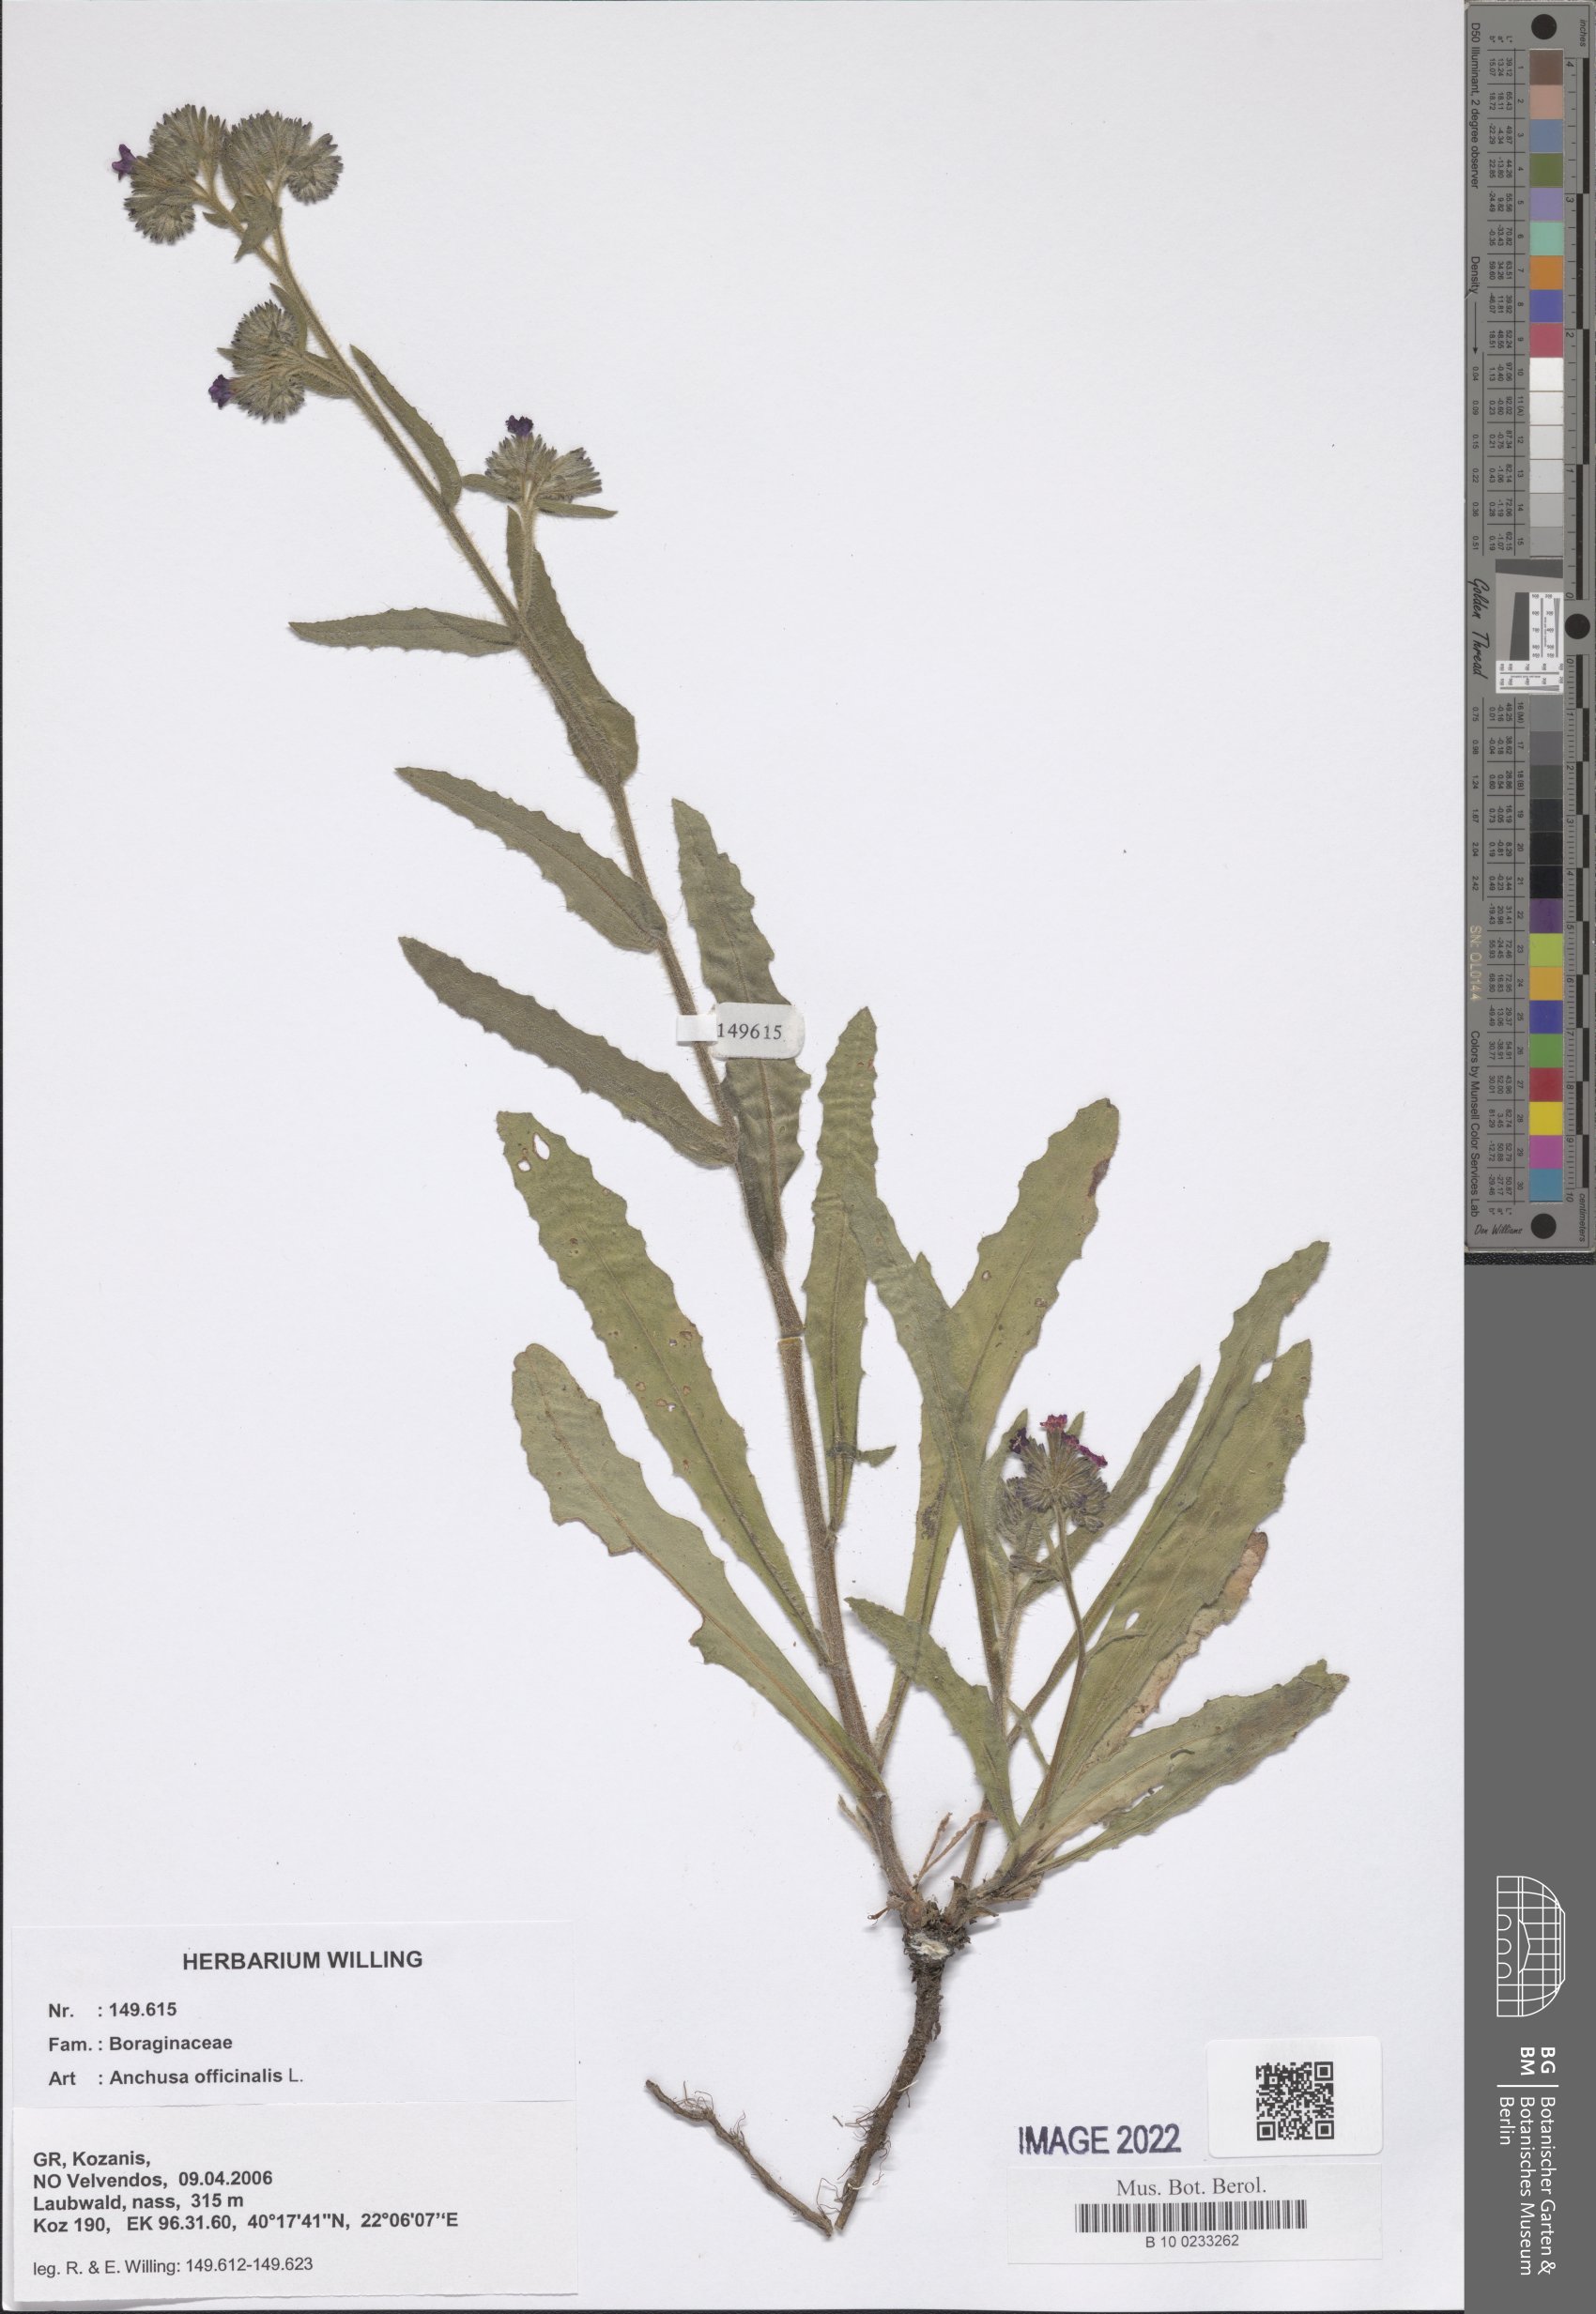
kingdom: Plantae
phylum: Tracheophyta
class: Magnoliopsida
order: Boraginales
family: Boraginaceae
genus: Anchusa
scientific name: Anchusa officinalis
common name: Alkanet
